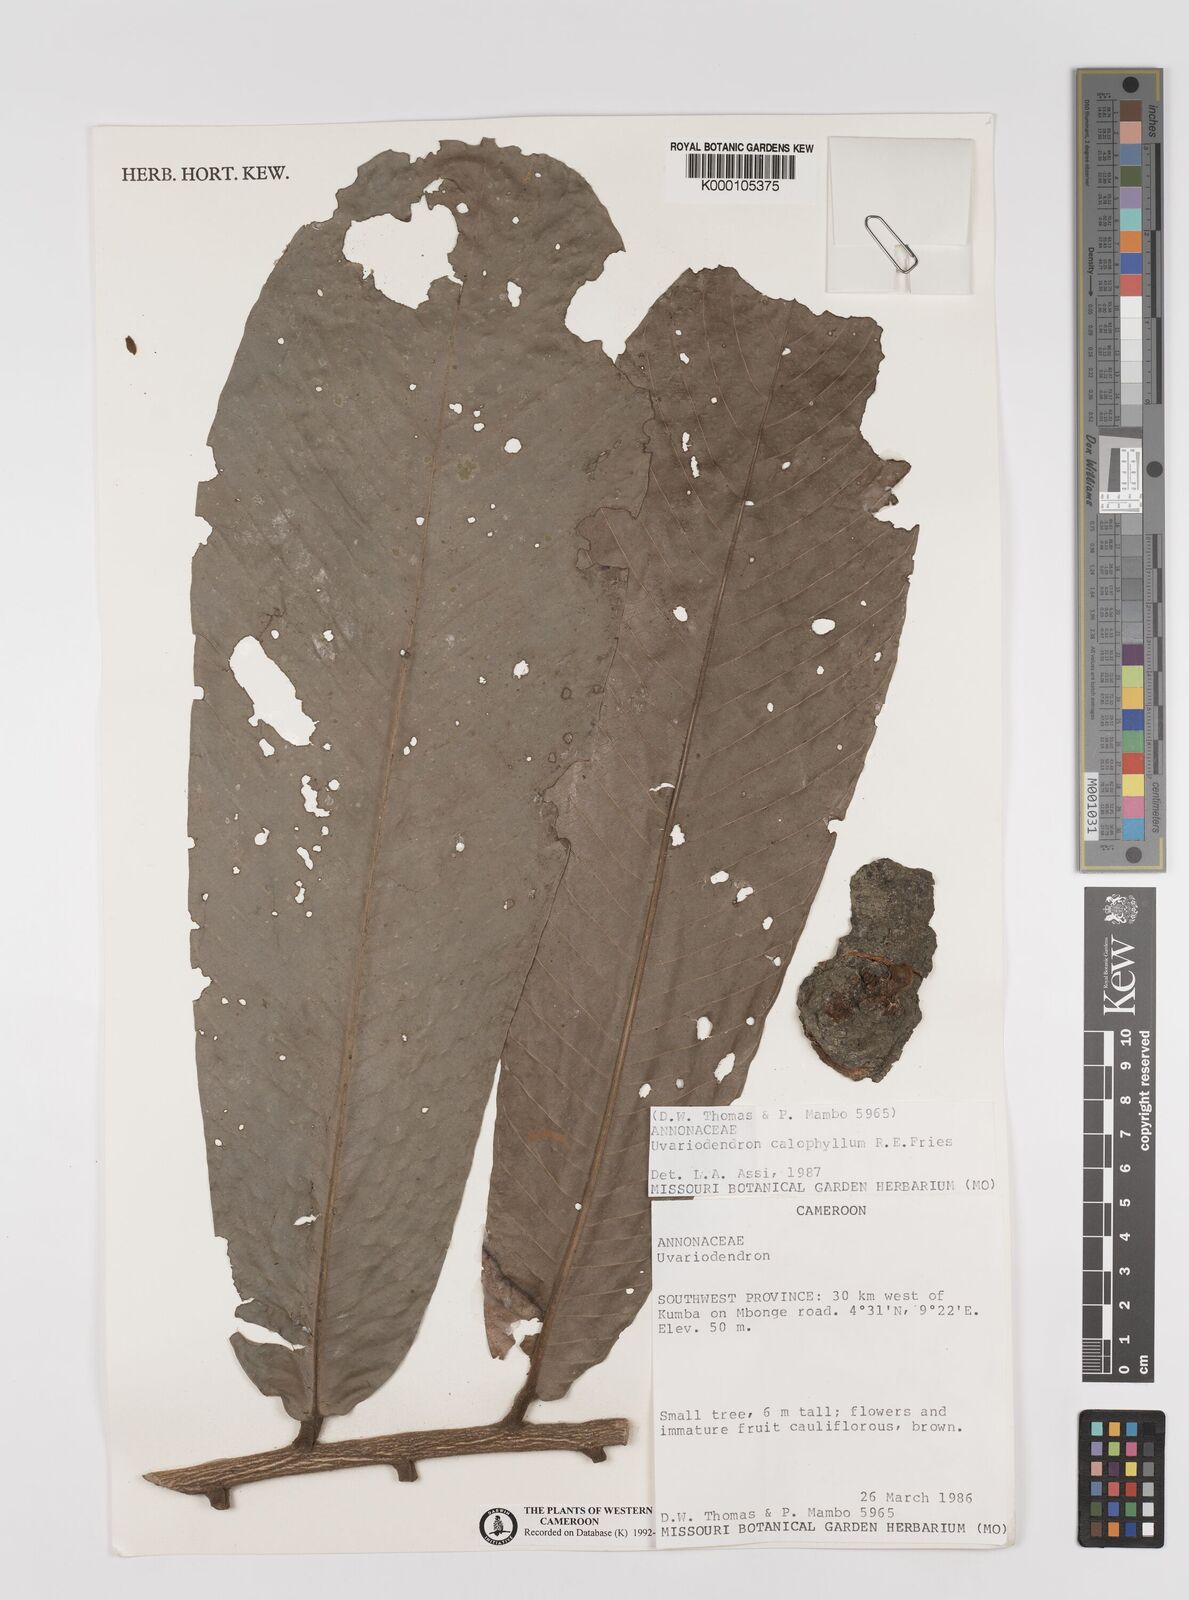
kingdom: Plantae
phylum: Tracheophyta
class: Magnoliopsida
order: Magnoliales
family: Annonaceae
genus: Uvariodendron
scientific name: Uvariodendron calophyllum
